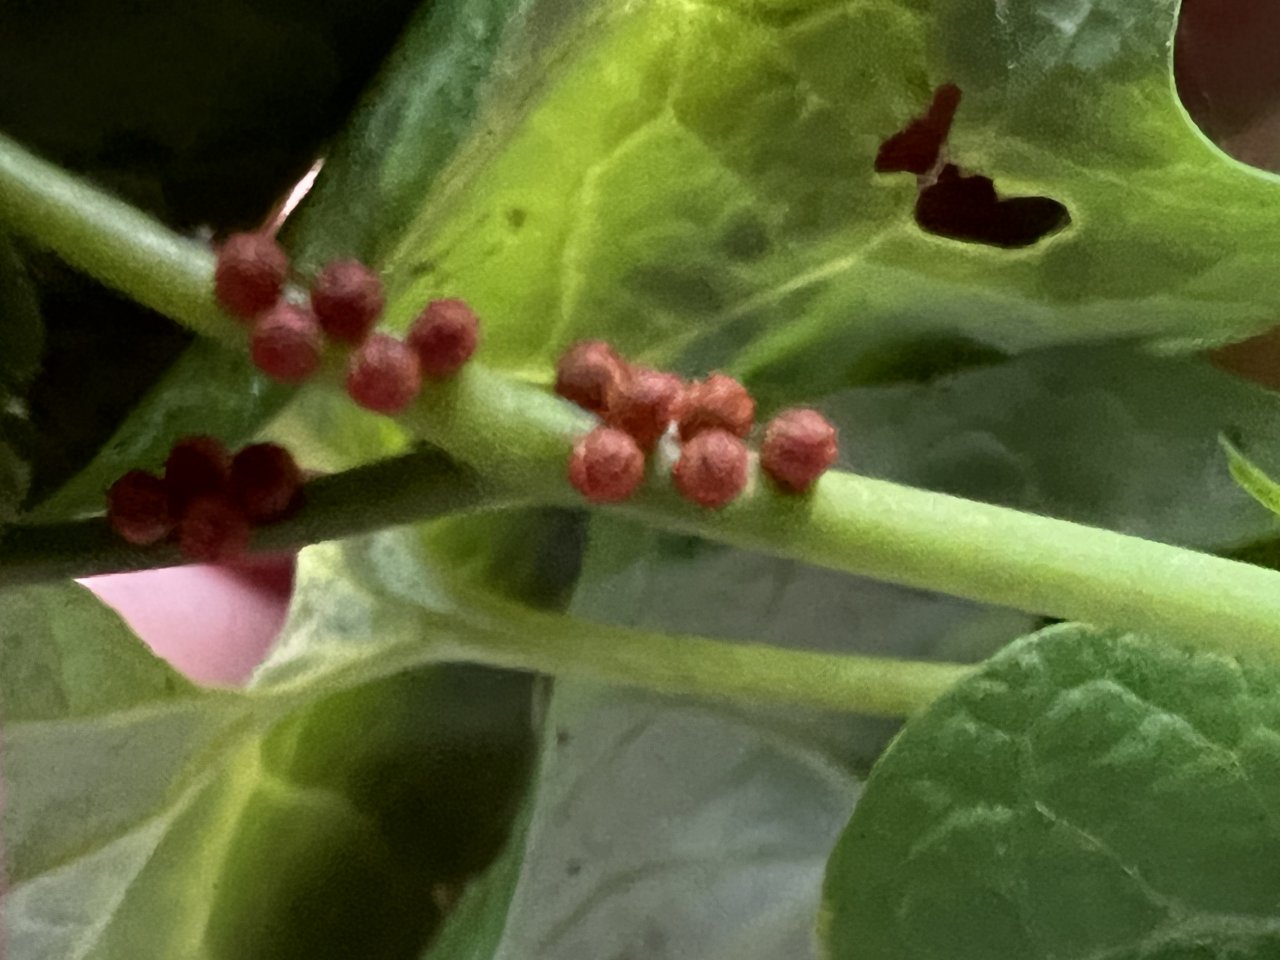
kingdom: Animalia
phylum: Arthropoda
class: Insecta
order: Lepidoptera
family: Papilionidae
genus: Battus
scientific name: Battus philenor
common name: Pipevine Swallowtail
